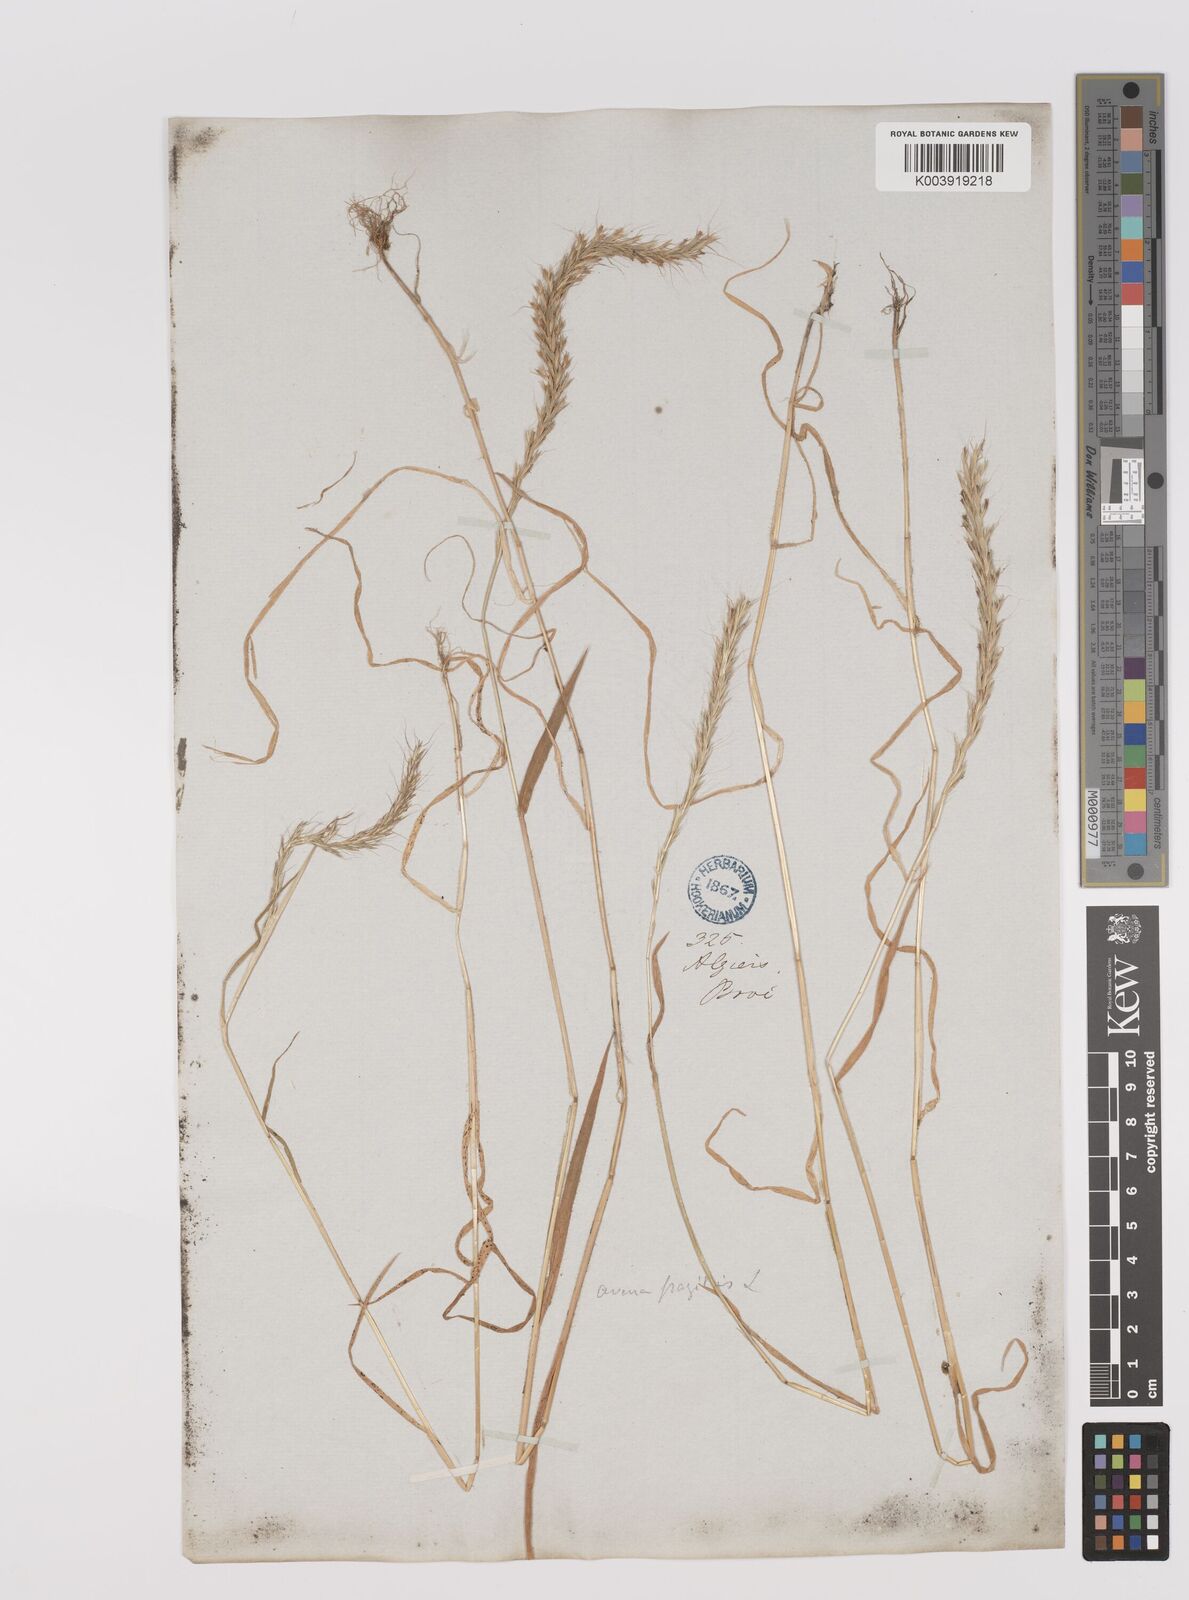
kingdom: Plantae
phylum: Tracheophyta
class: Liliopsida
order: Poales
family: Poaceae
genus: Gaudinia
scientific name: Gaudinia fragilis
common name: French oat-grass
